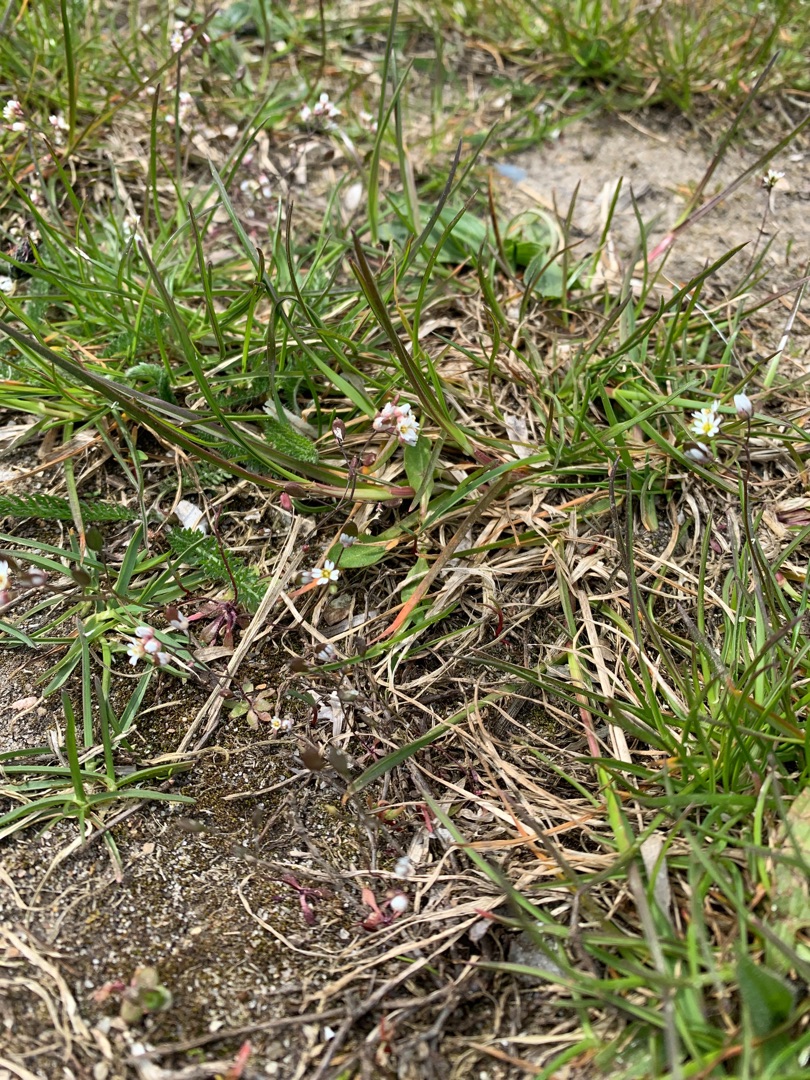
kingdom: Plantae
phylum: Tracheophyta
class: Magnoliopsida
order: Brassicales
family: Brassicaceae
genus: Draba
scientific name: Draba verna
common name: Vår-gæslingeblomst
